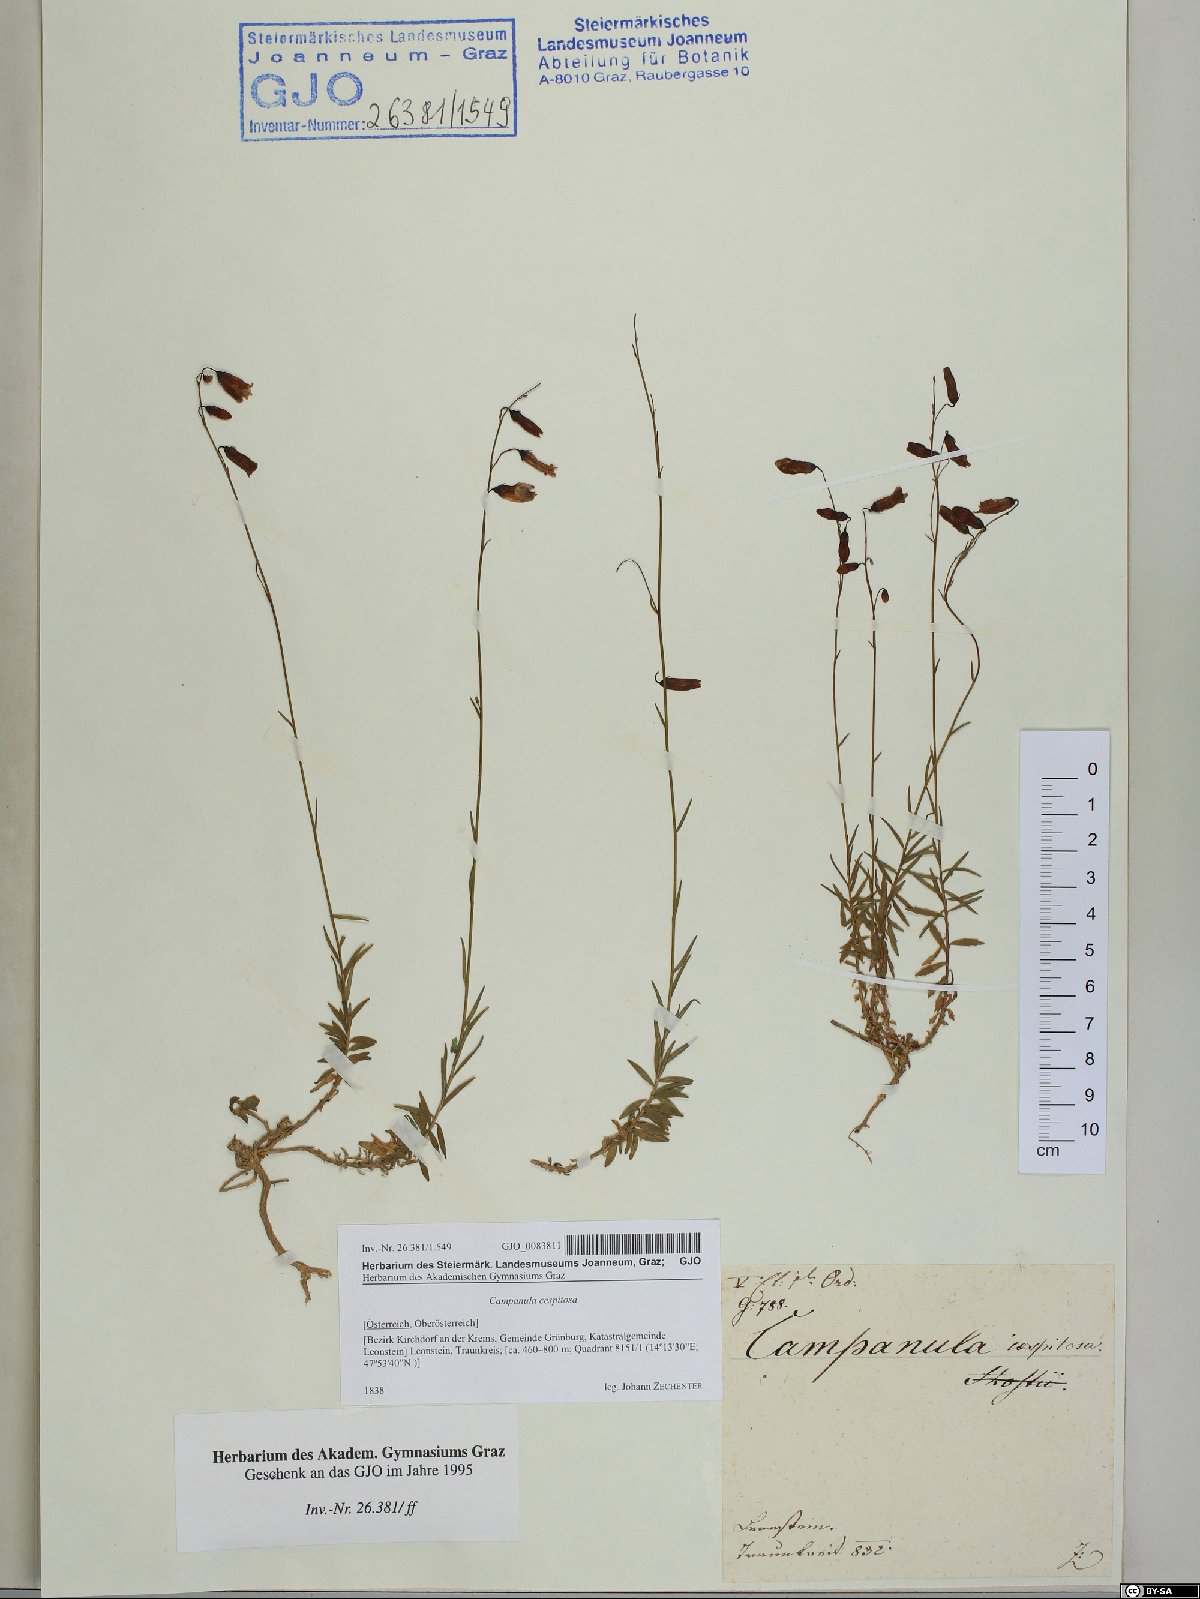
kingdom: Plantae
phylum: Tracheophyta
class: Magnoliopsida
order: Asterales
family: Campanulaceae
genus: Campanula
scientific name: Campanula cespitosa
